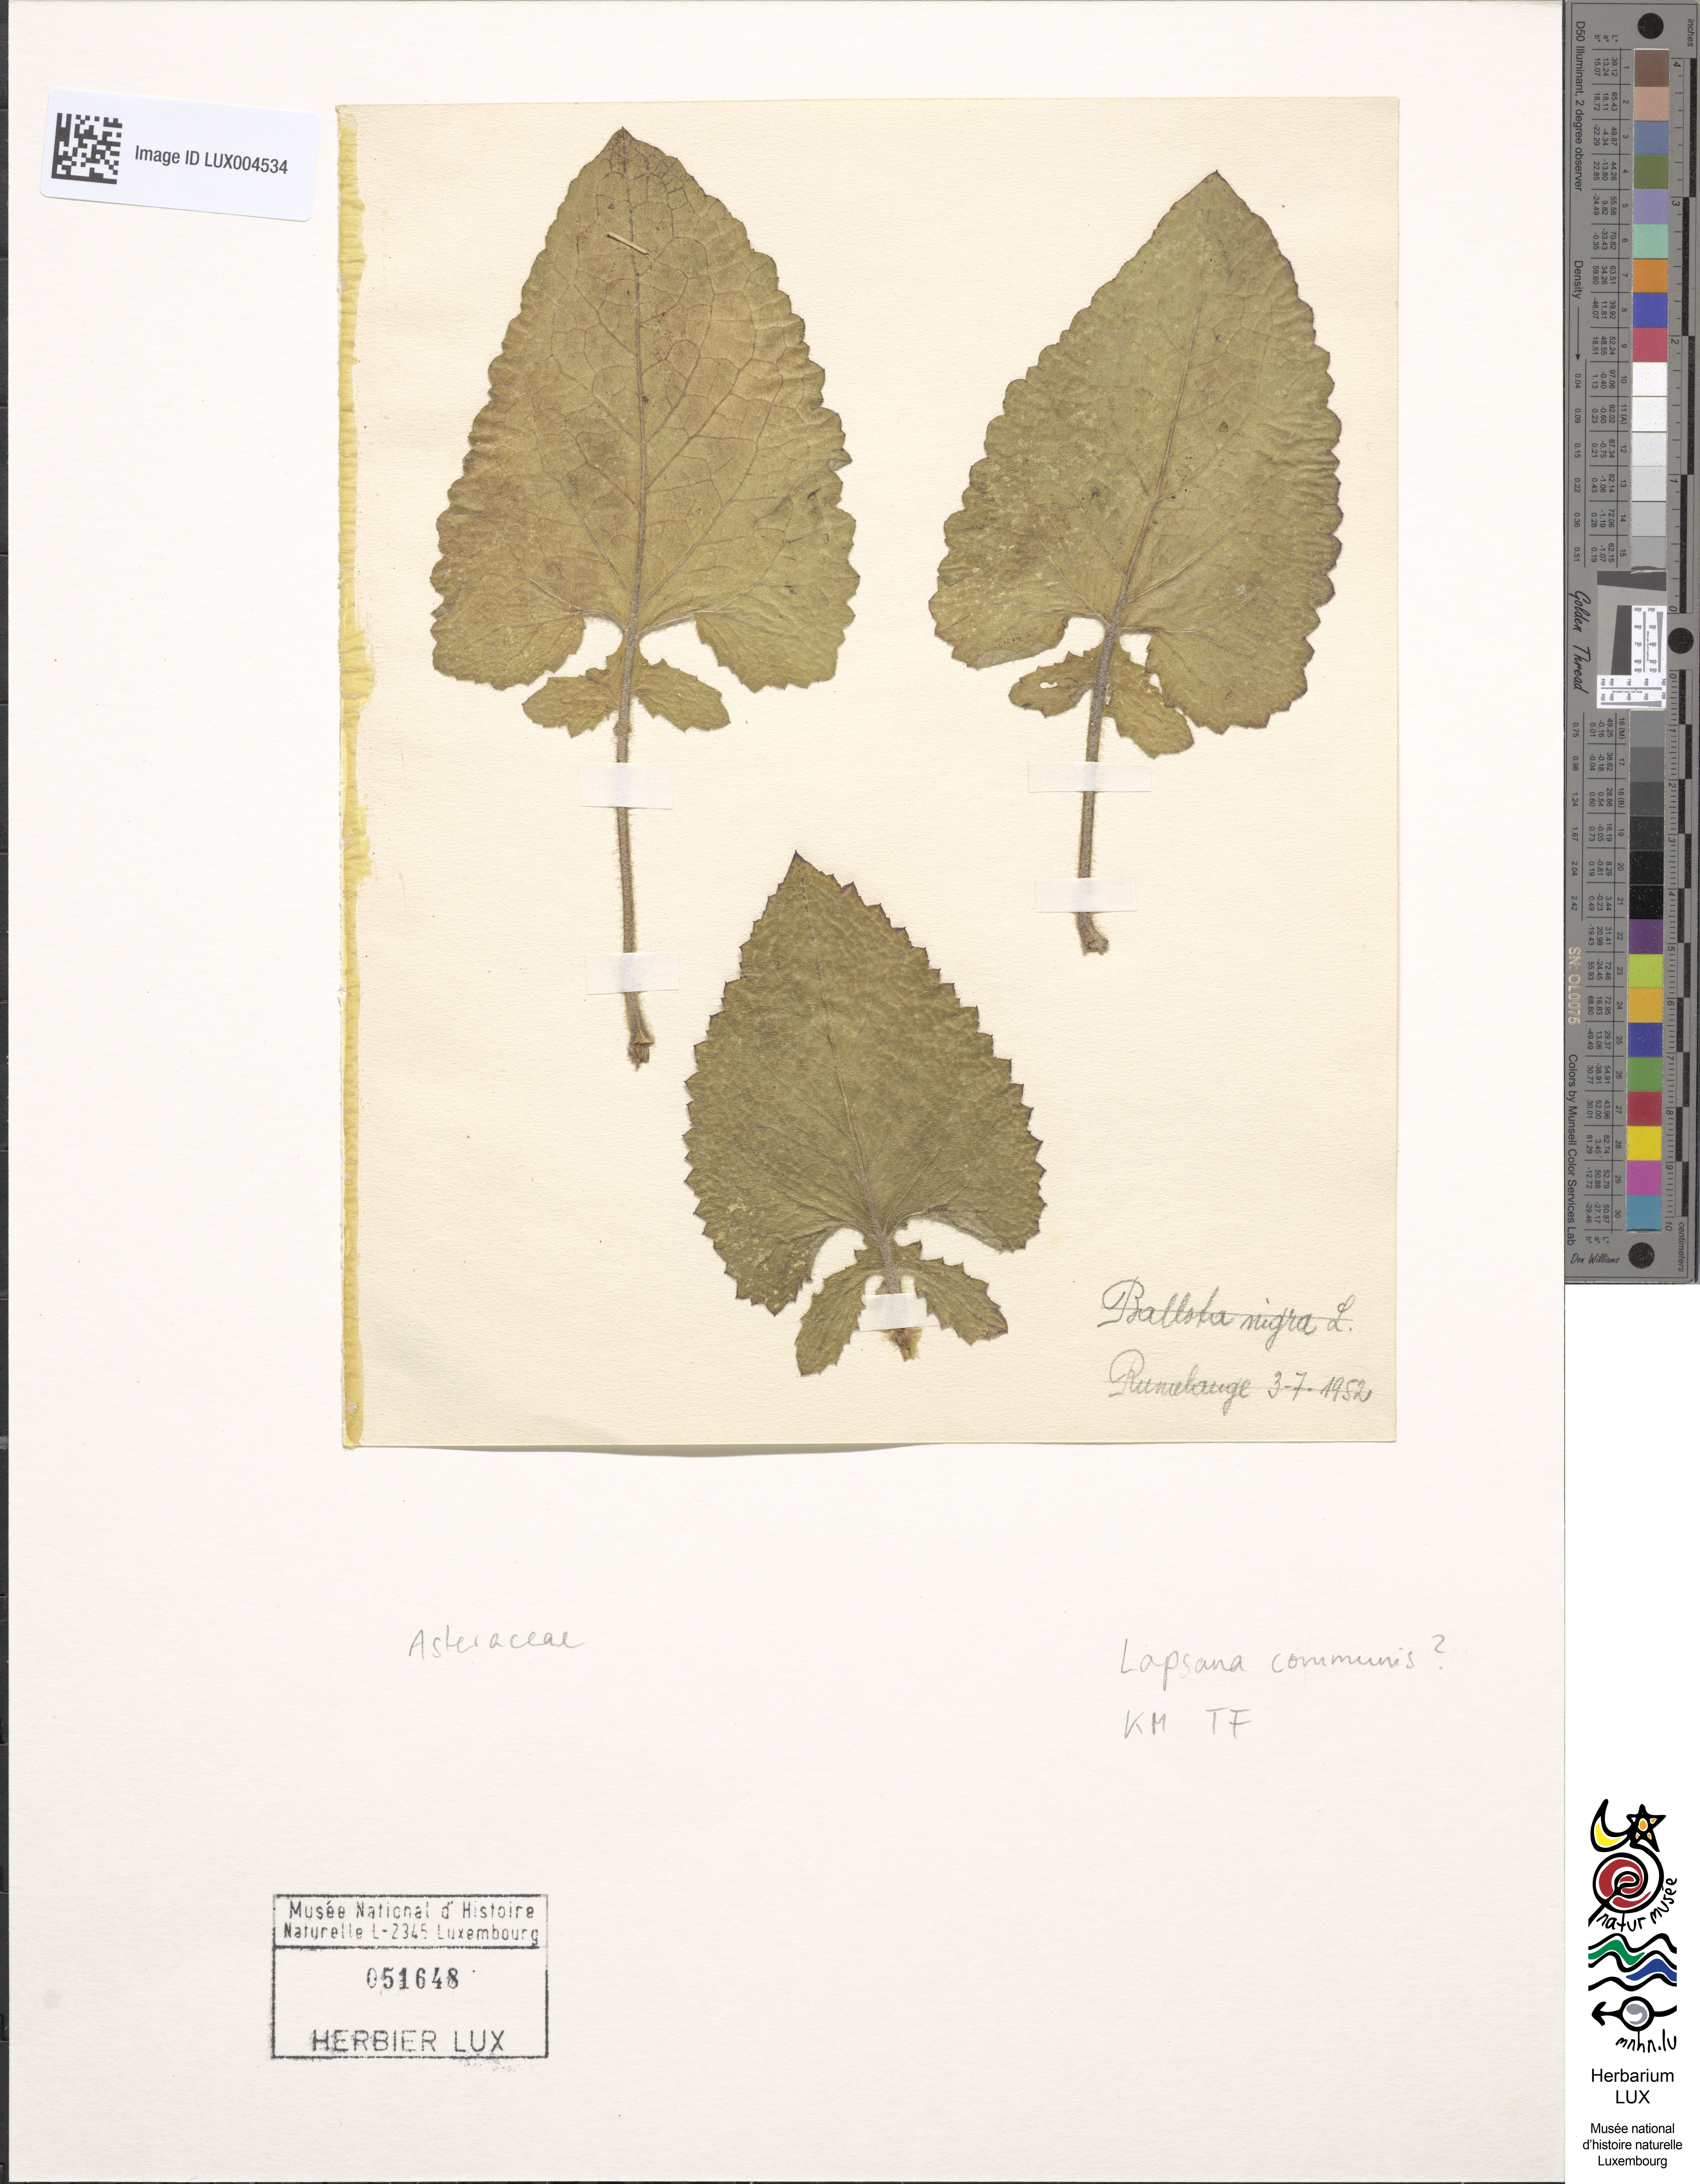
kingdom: Plantae
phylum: Tracheophyta
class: Magnoliopsida
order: Asterales
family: Asteraceae
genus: Lapsana
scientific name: Lapsana communis
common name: Nipplewort
